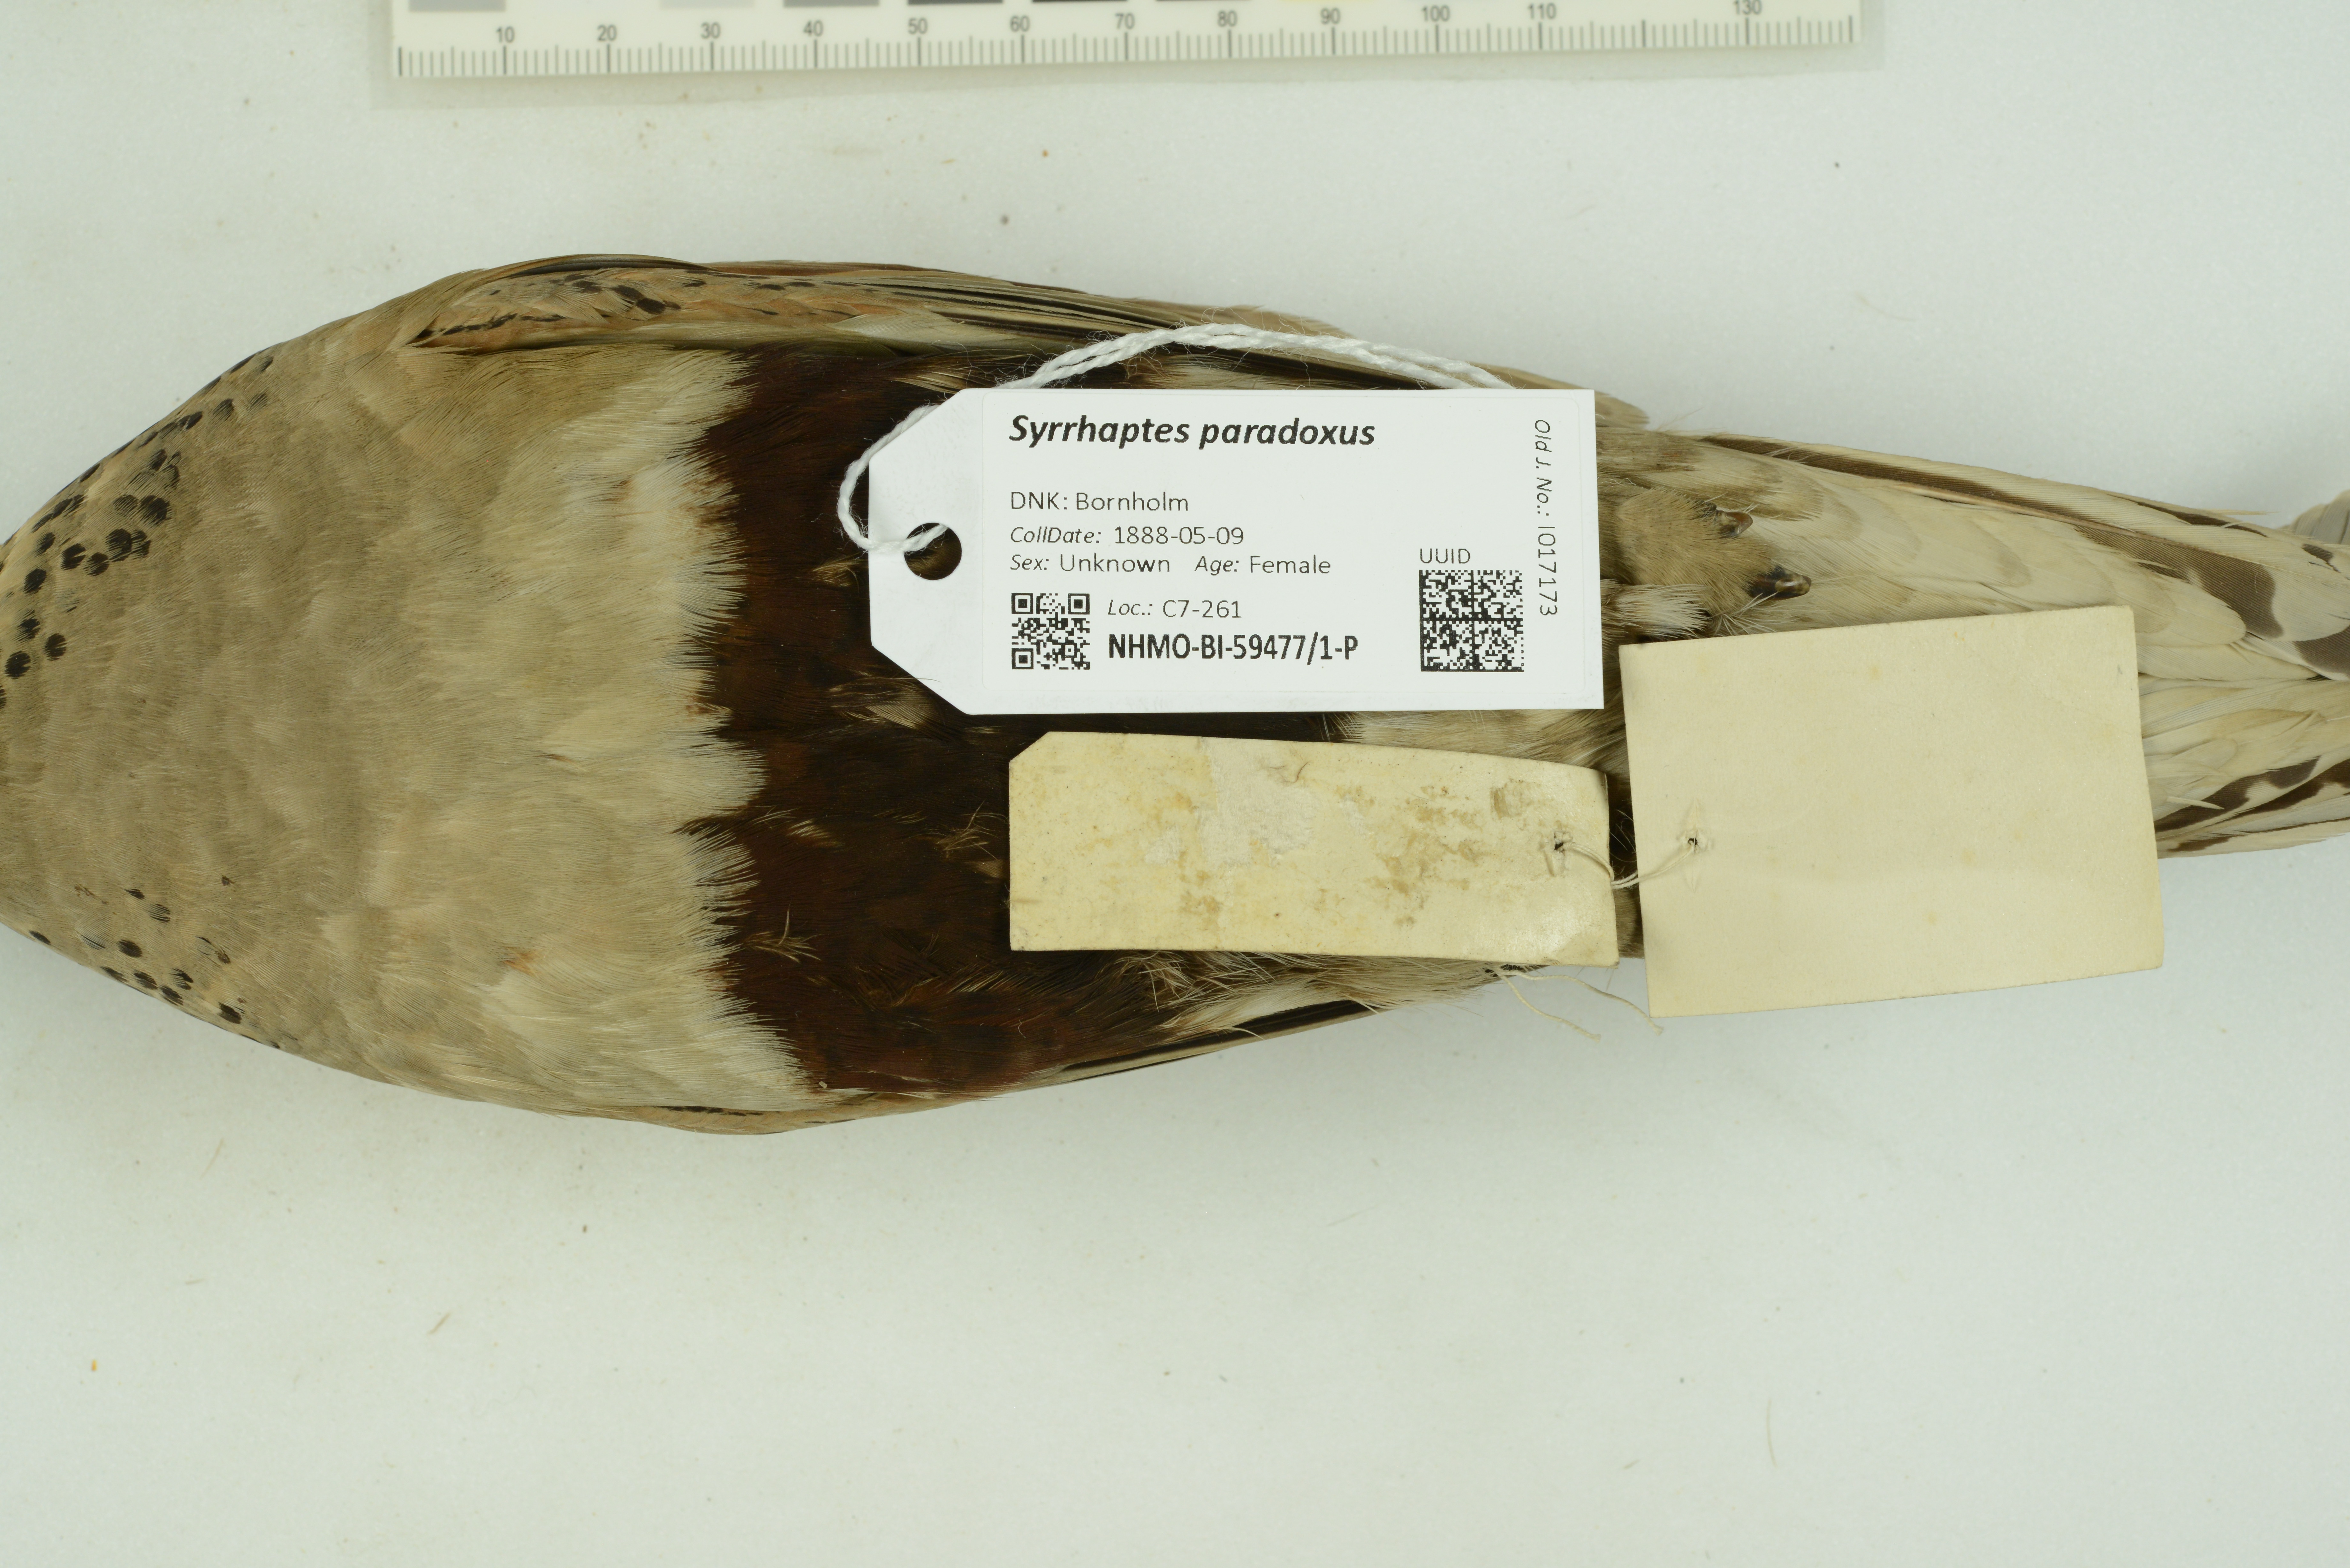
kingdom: Animalia
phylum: Chordata
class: Aves
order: Pteroclidiformes
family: Pteroclididae
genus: Syrrhaptes
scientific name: Syrrhaptes paradoxus
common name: Pallas's sandgrouse
